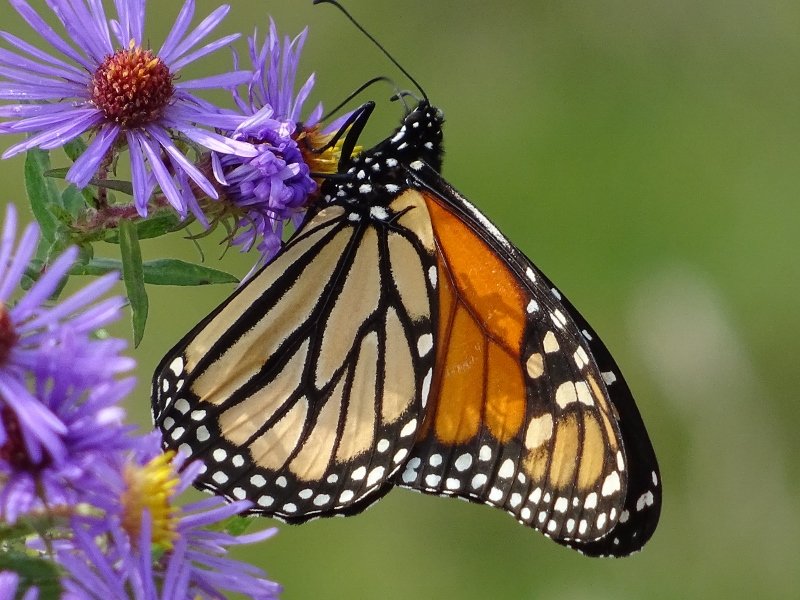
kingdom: Animalia
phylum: Arthropoda
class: Insecta
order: Lepidoptera
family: Nymphalidae
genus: Danaus
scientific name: Danaus plexippus
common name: Monarch
